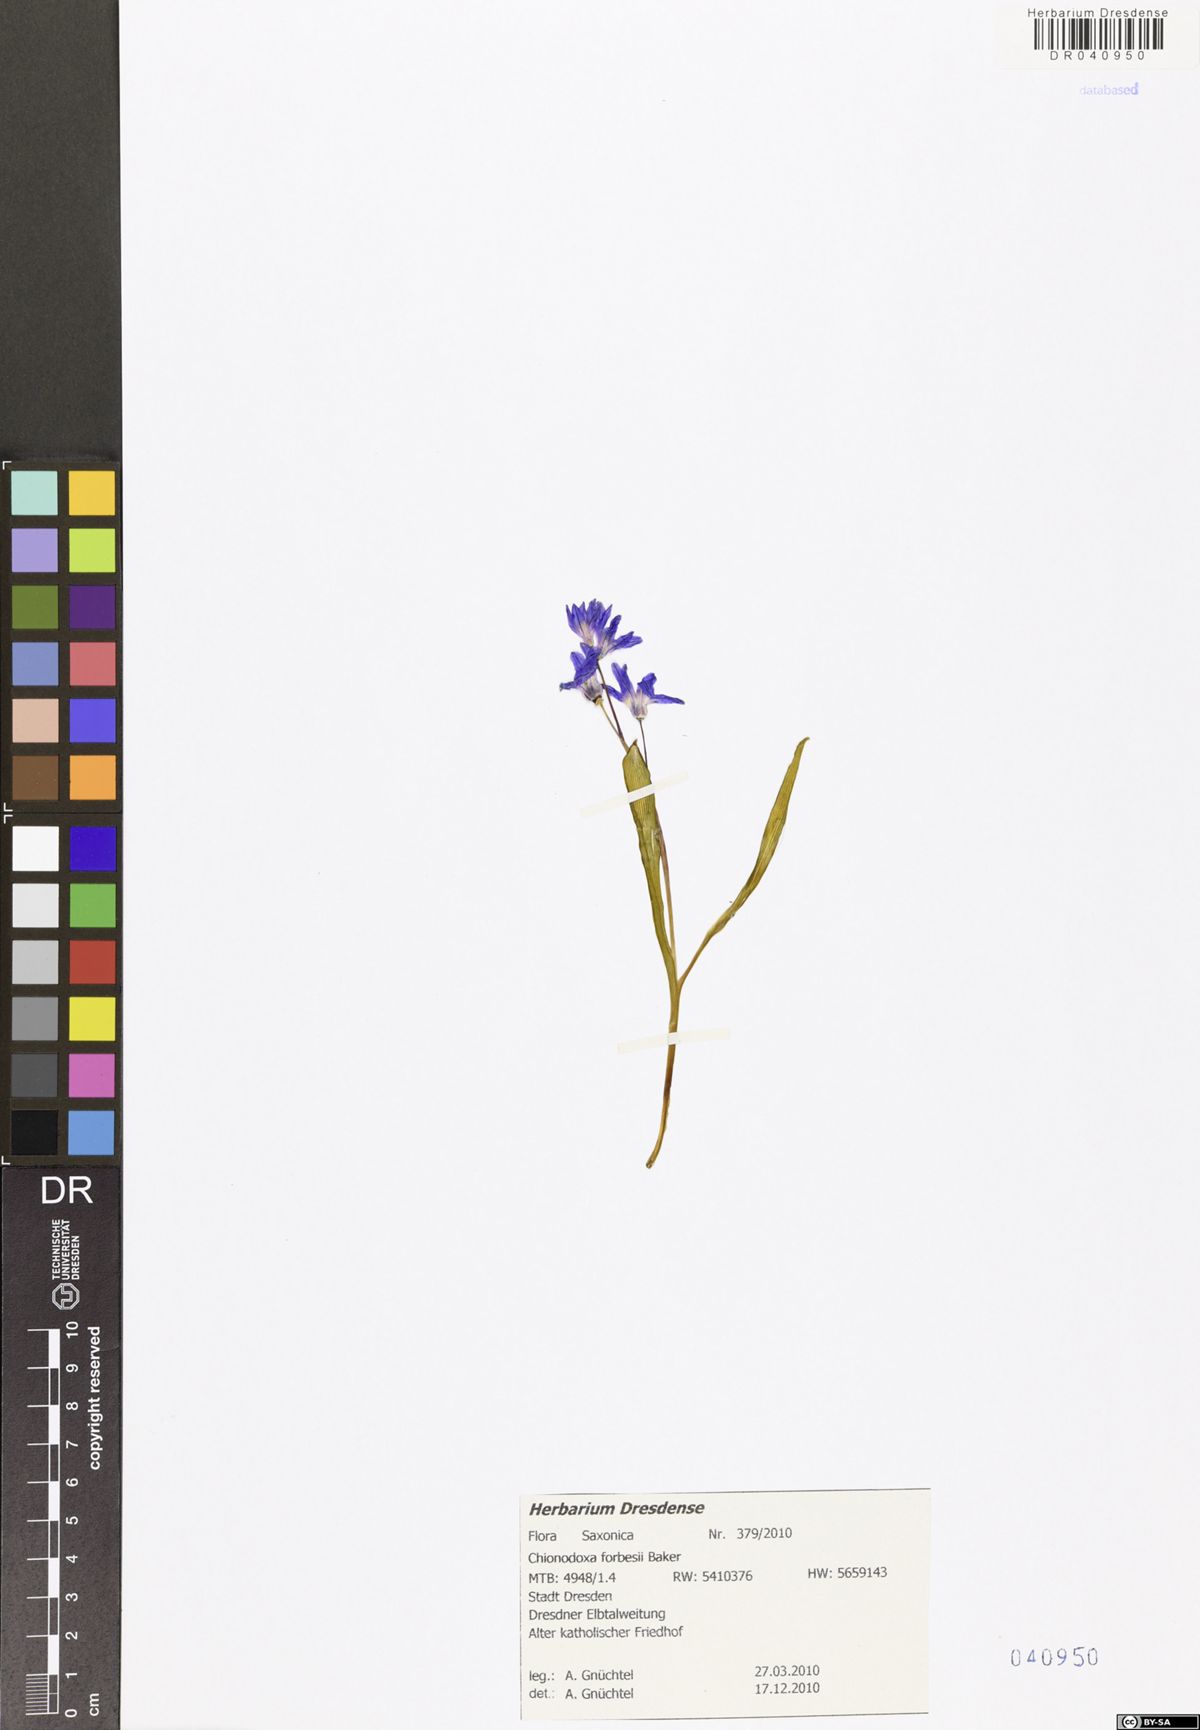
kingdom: Plantae
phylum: Tracheophyta
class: Liliopsida
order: Asparagales
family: Asparagaceae
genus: Scilla
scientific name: Scilla forbesii
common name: Glory-of-the-snow
